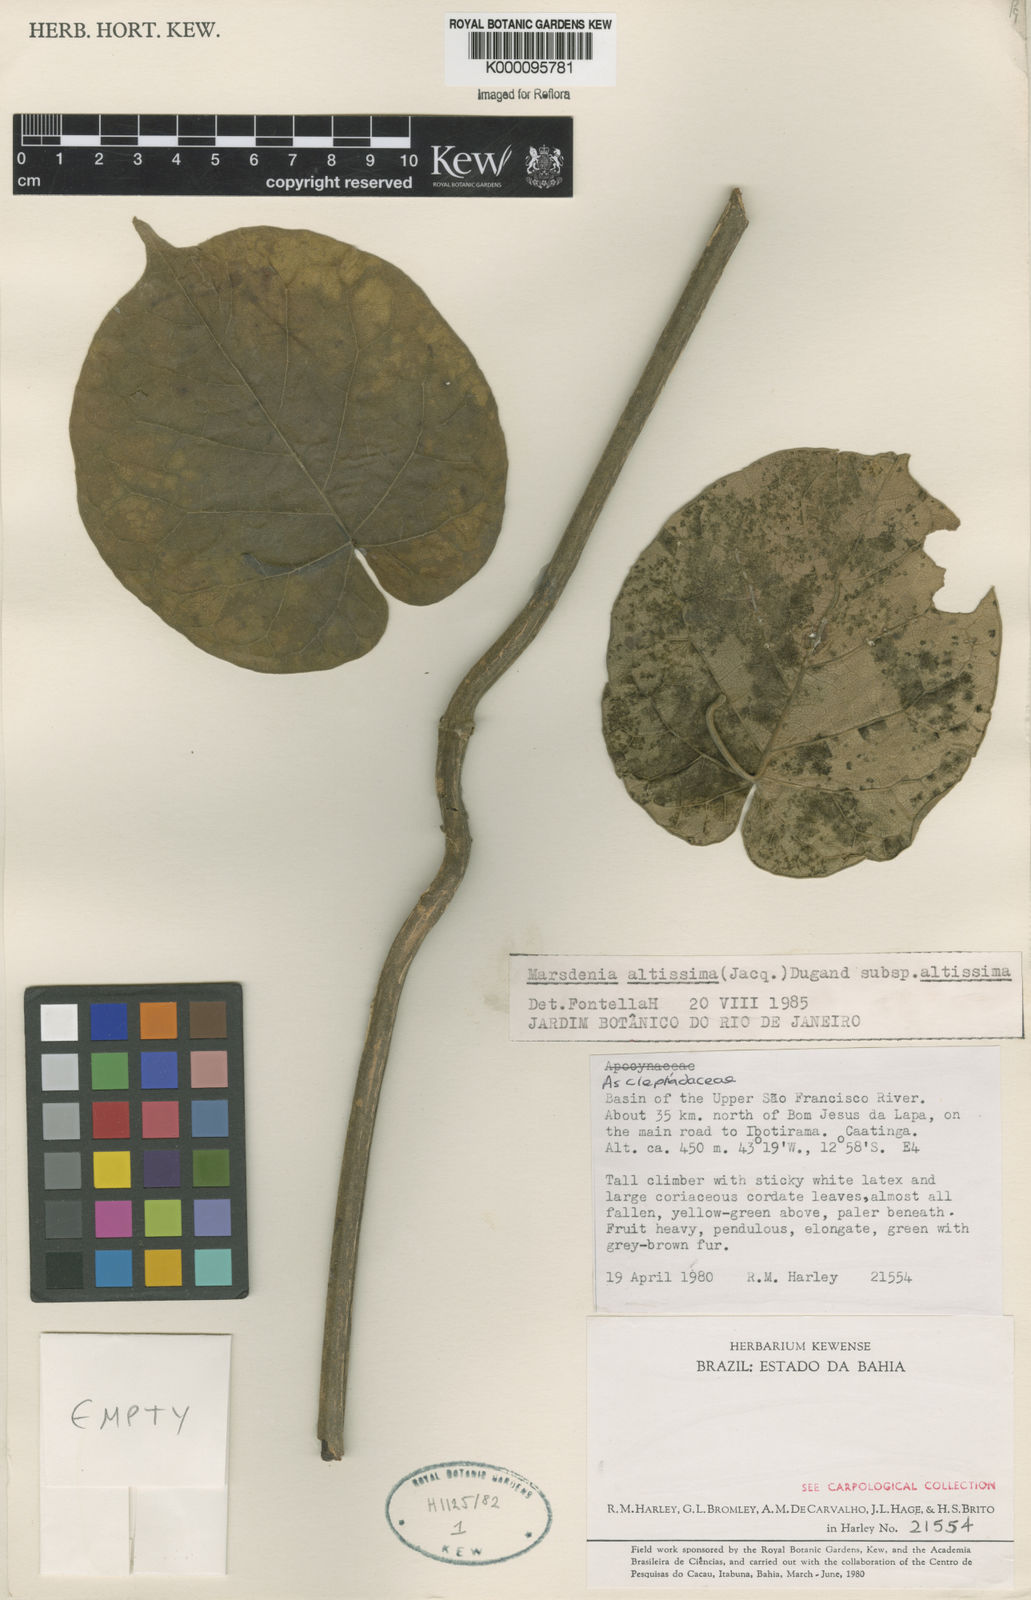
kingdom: Plantae
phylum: Tracheophyta
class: Magnoliopsida
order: Gentianales
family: Apocynaceae
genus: Ruehssia
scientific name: Ruehssia altissima
